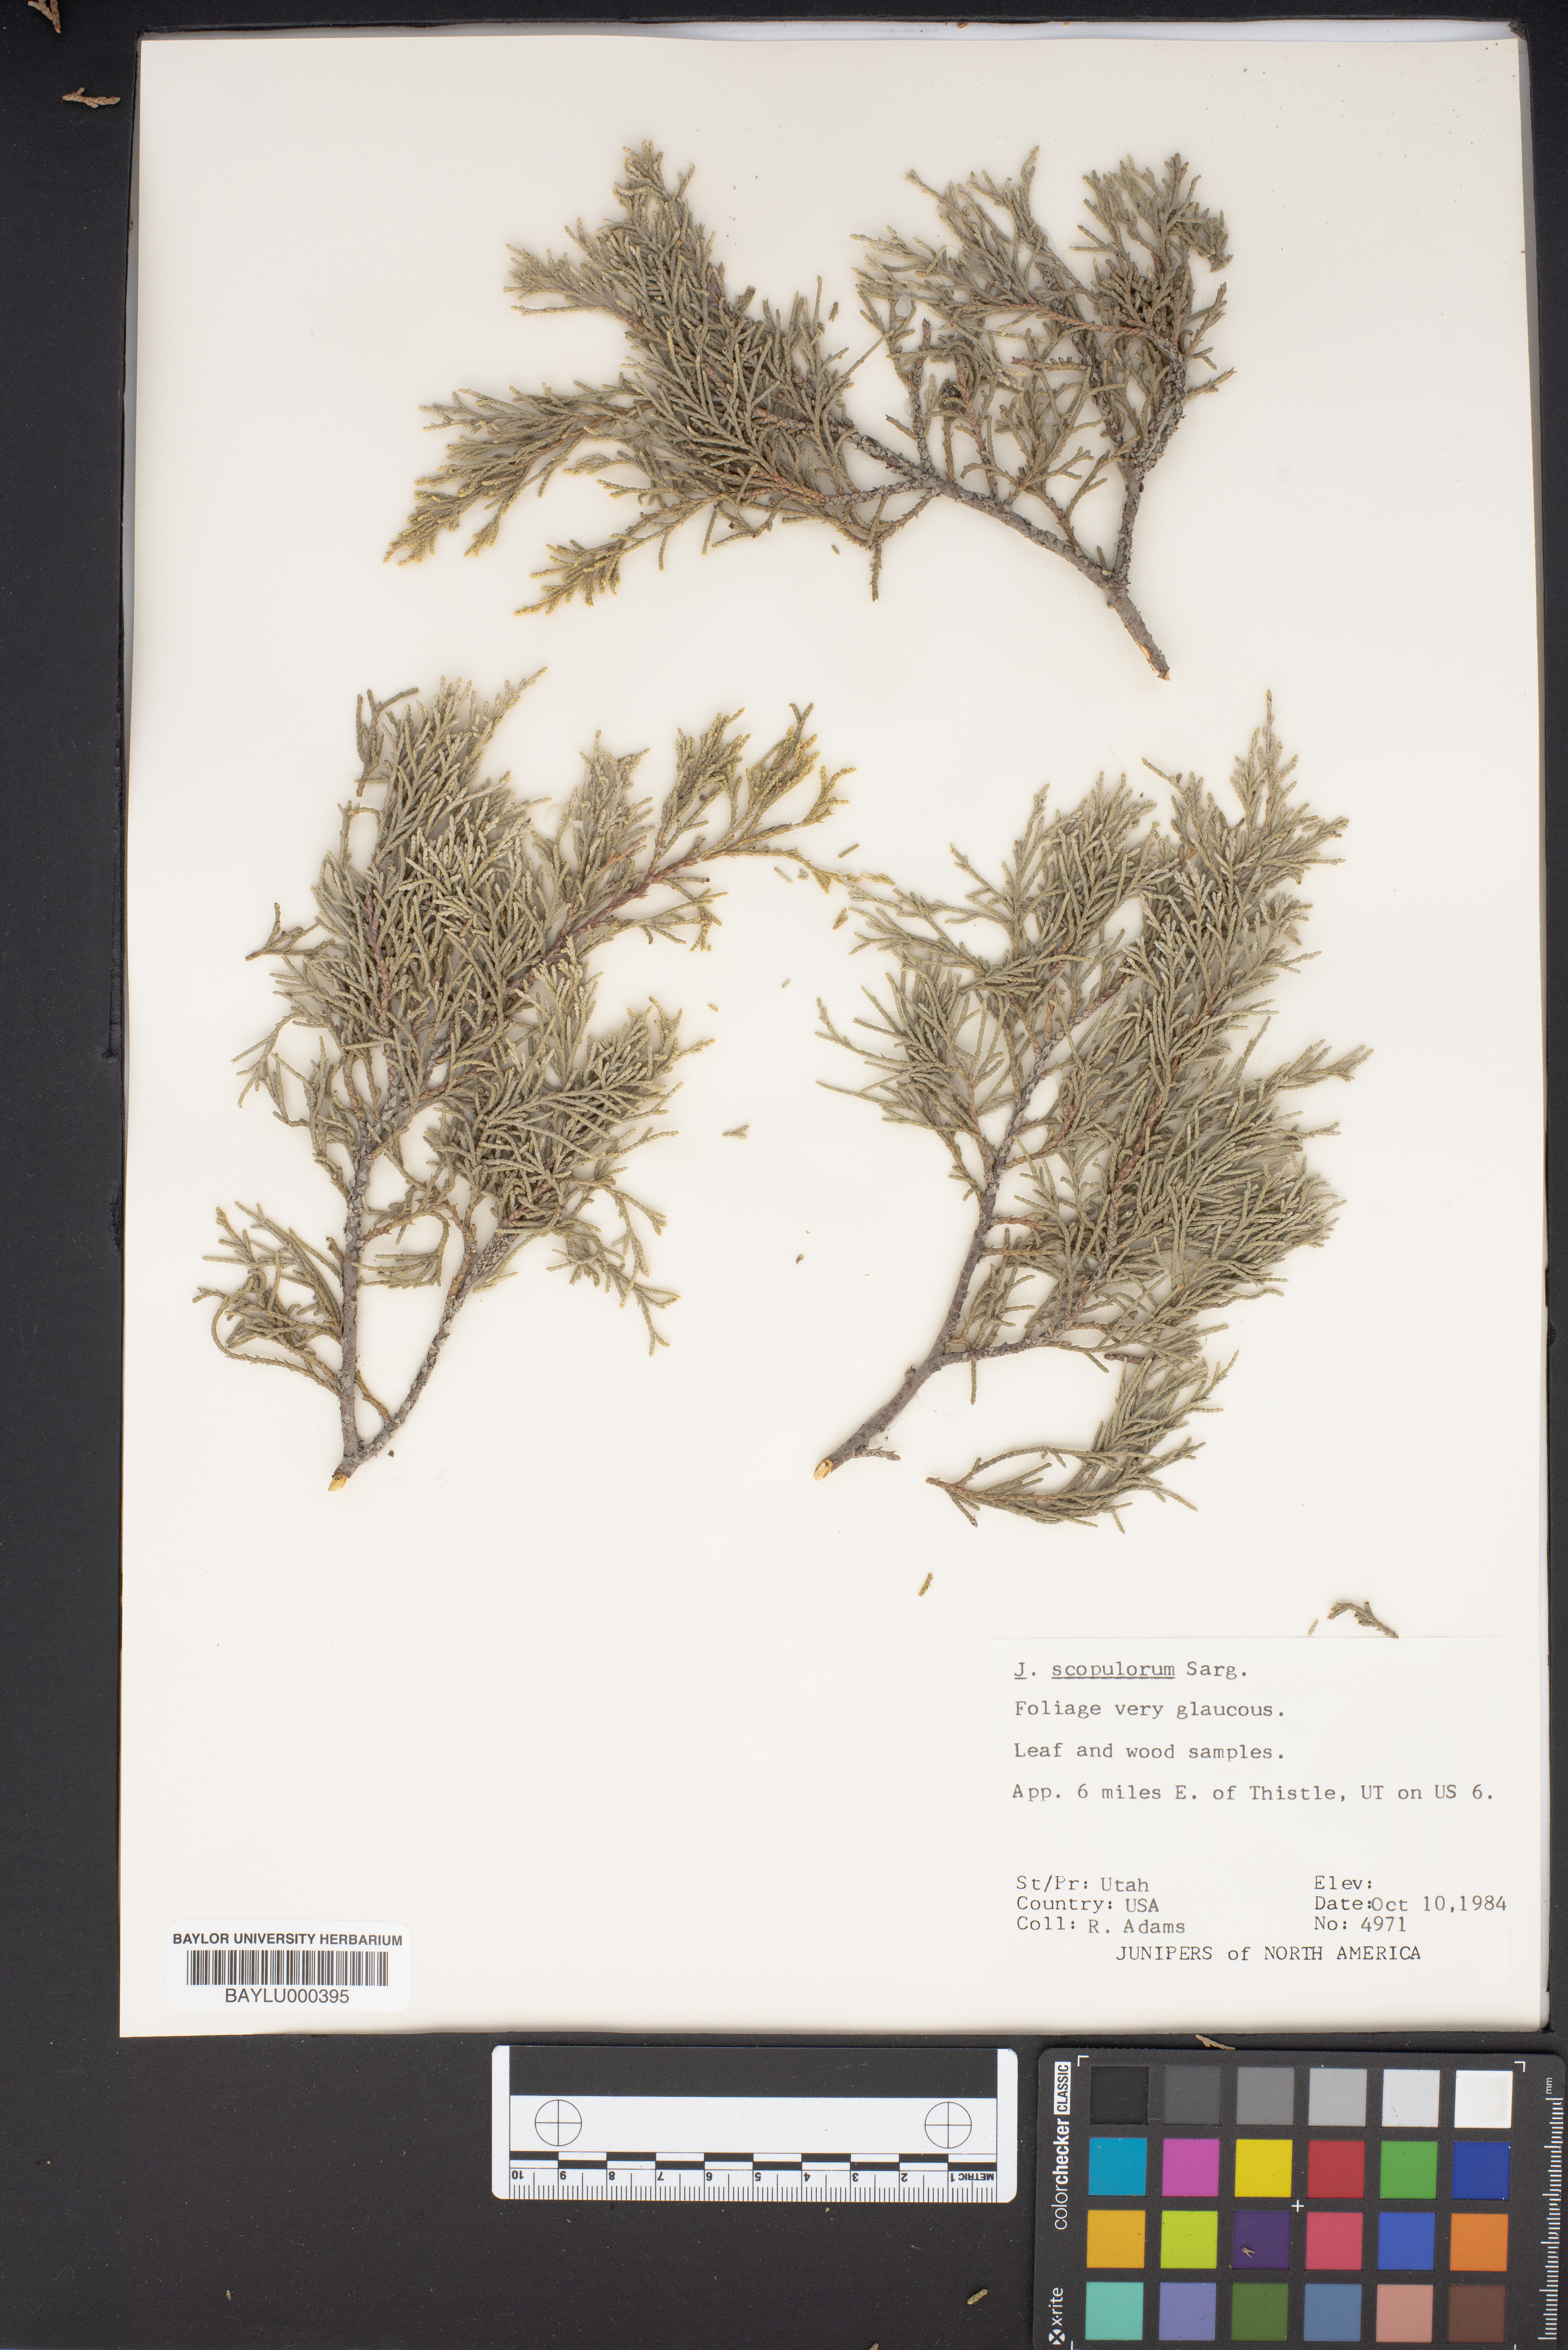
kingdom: Plantae
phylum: Tracheophyta
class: Pinopsida
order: Pinales
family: Cupressaceae
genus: Juniperus
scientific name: Juniperus scopulorum
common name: Rocky mountain juniper
